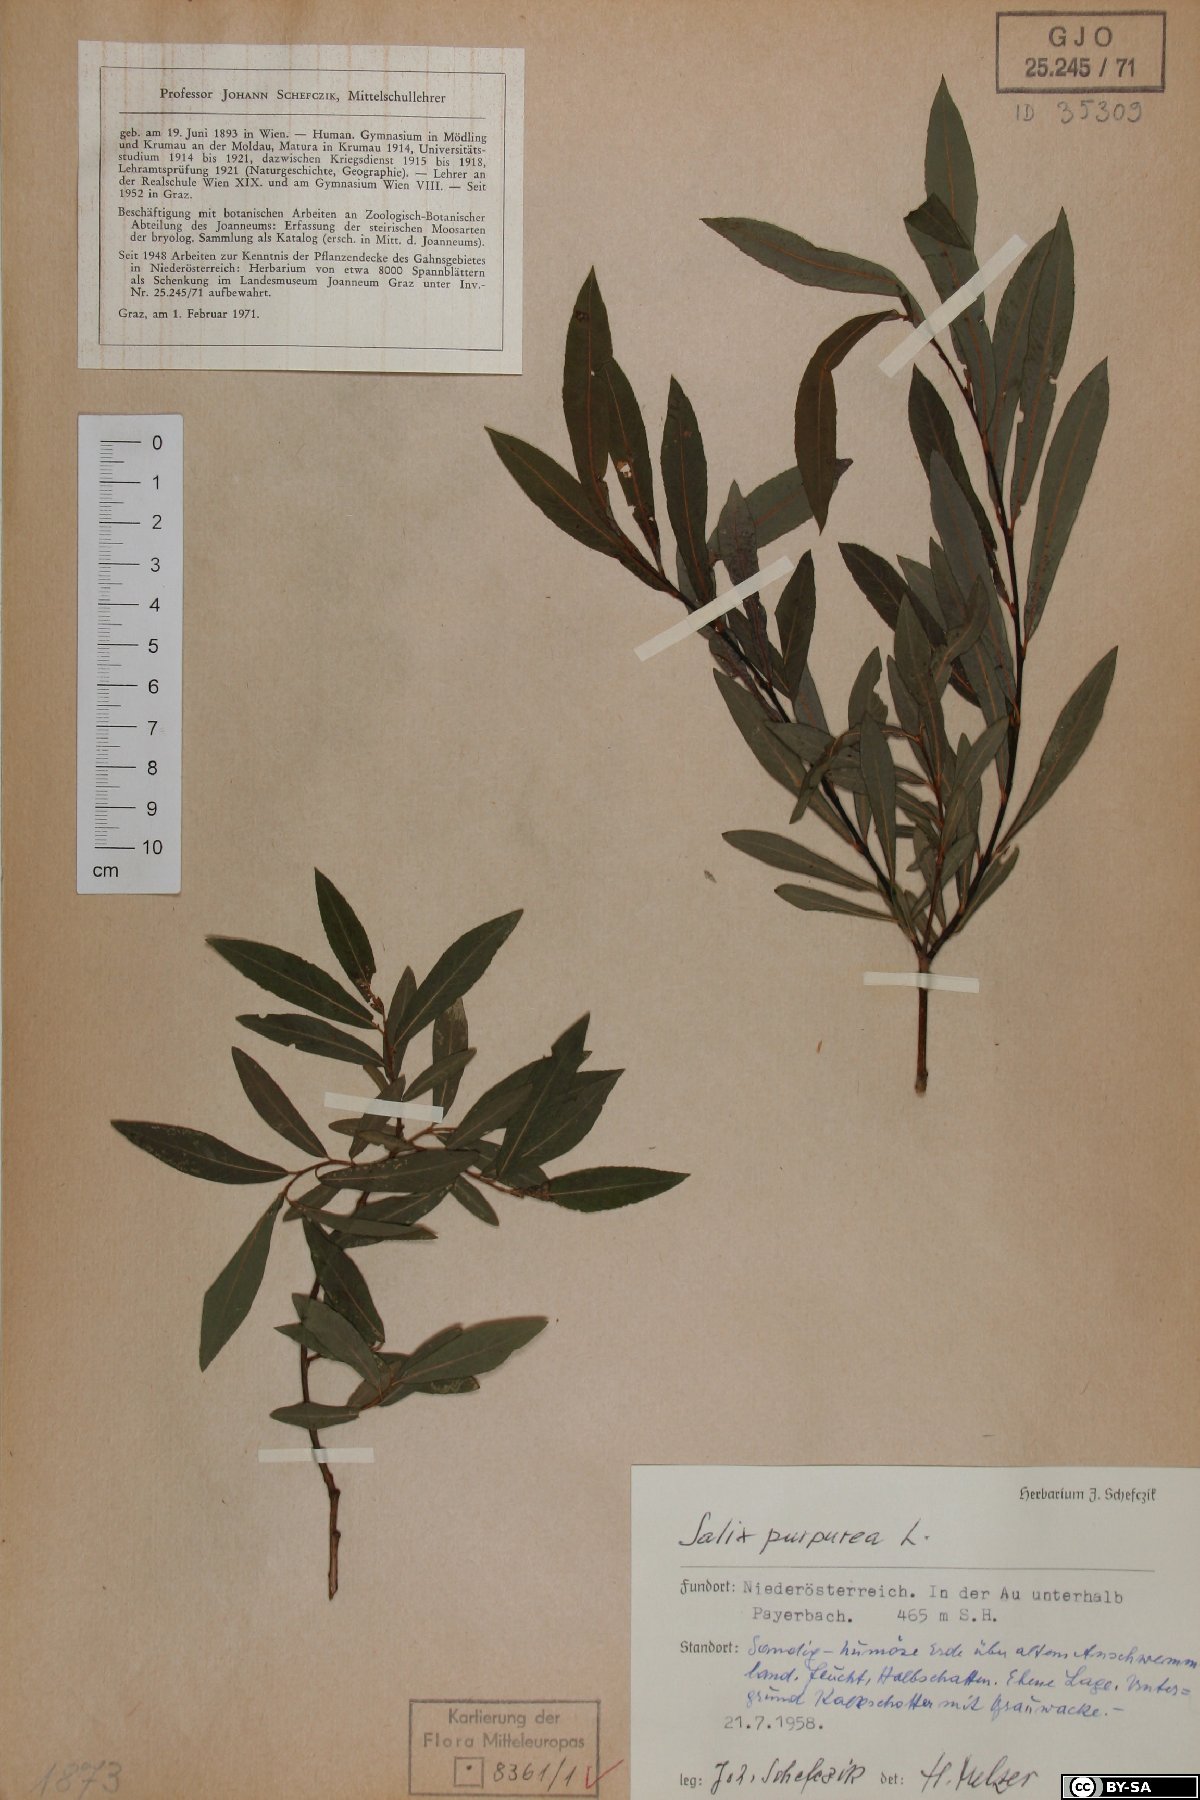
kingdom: Plantae
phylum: Tracheophyta
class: Magnoliopsida
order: Malpighiales
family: Salicaceae
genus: Salix
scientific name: Salix purpurea
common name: Purple willow
